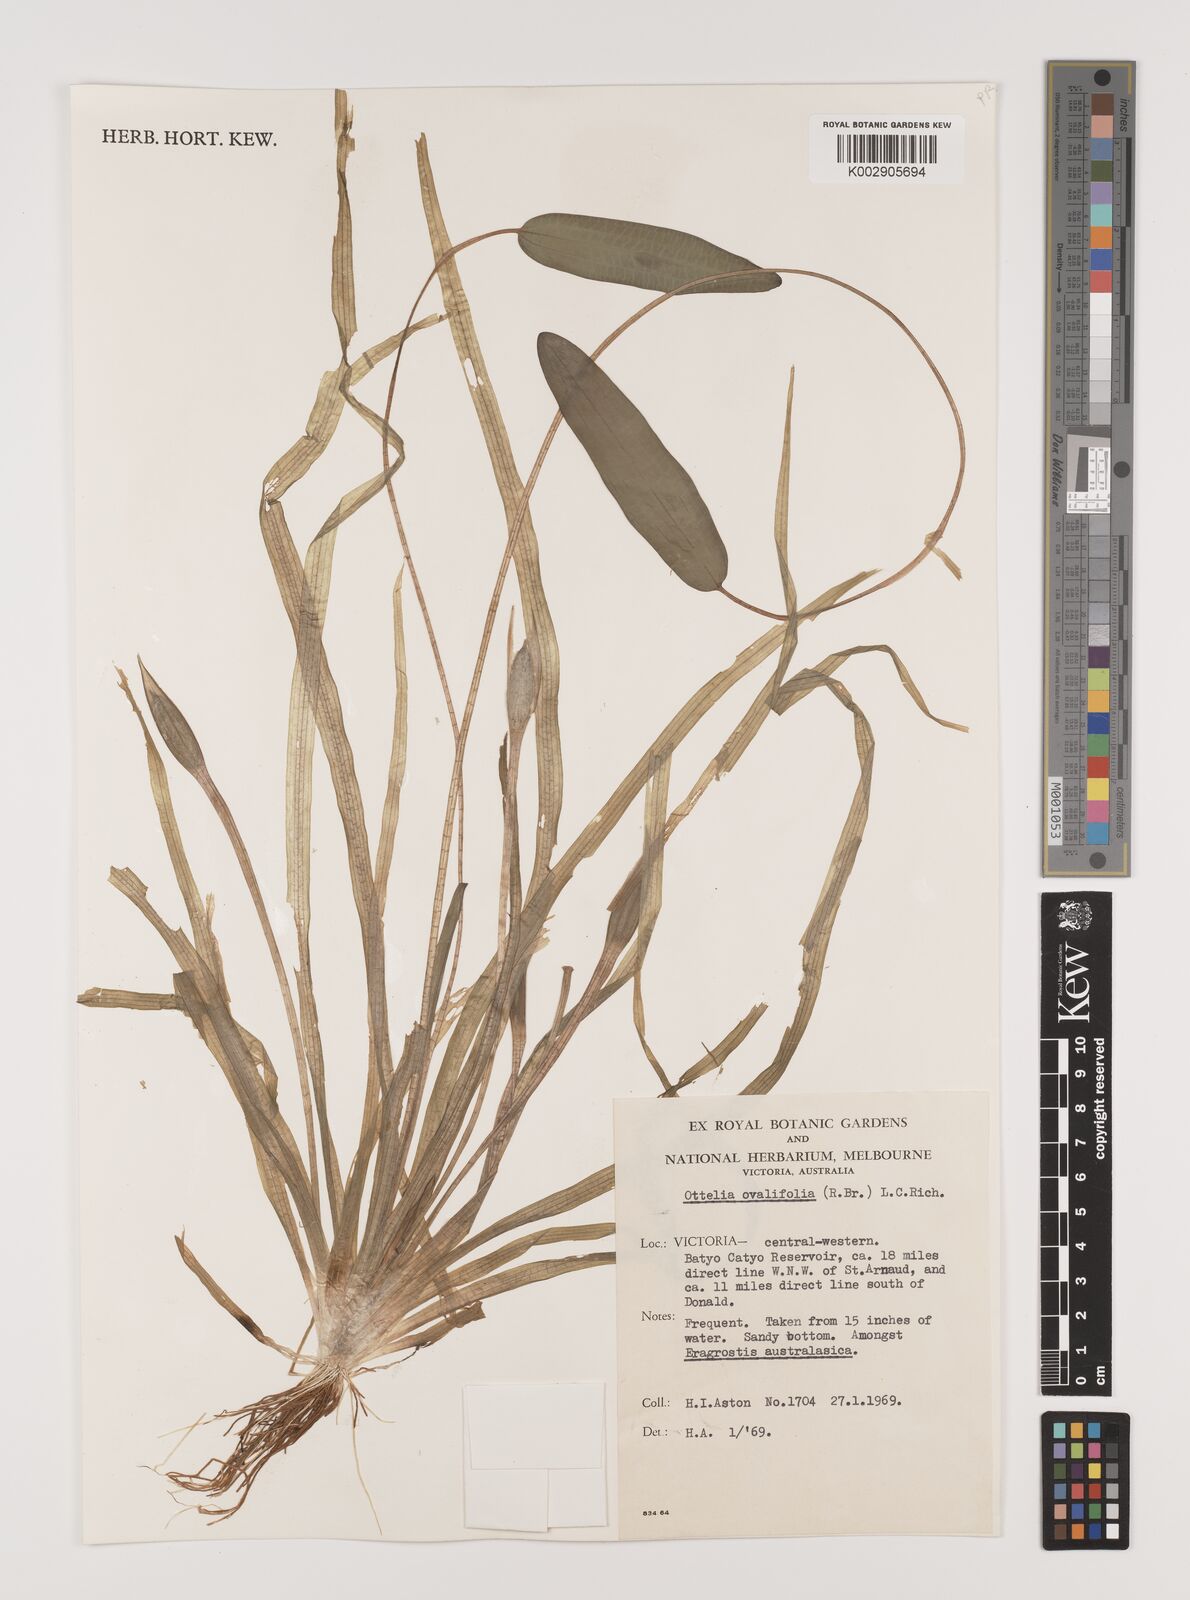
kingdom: Plantae
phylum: Tracheophyta
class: Liliopsida
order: Alismatales
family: Hydrocharitaceae
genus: Ottelia
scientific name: Ottelia ovalifolia
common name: Swamp-lily
